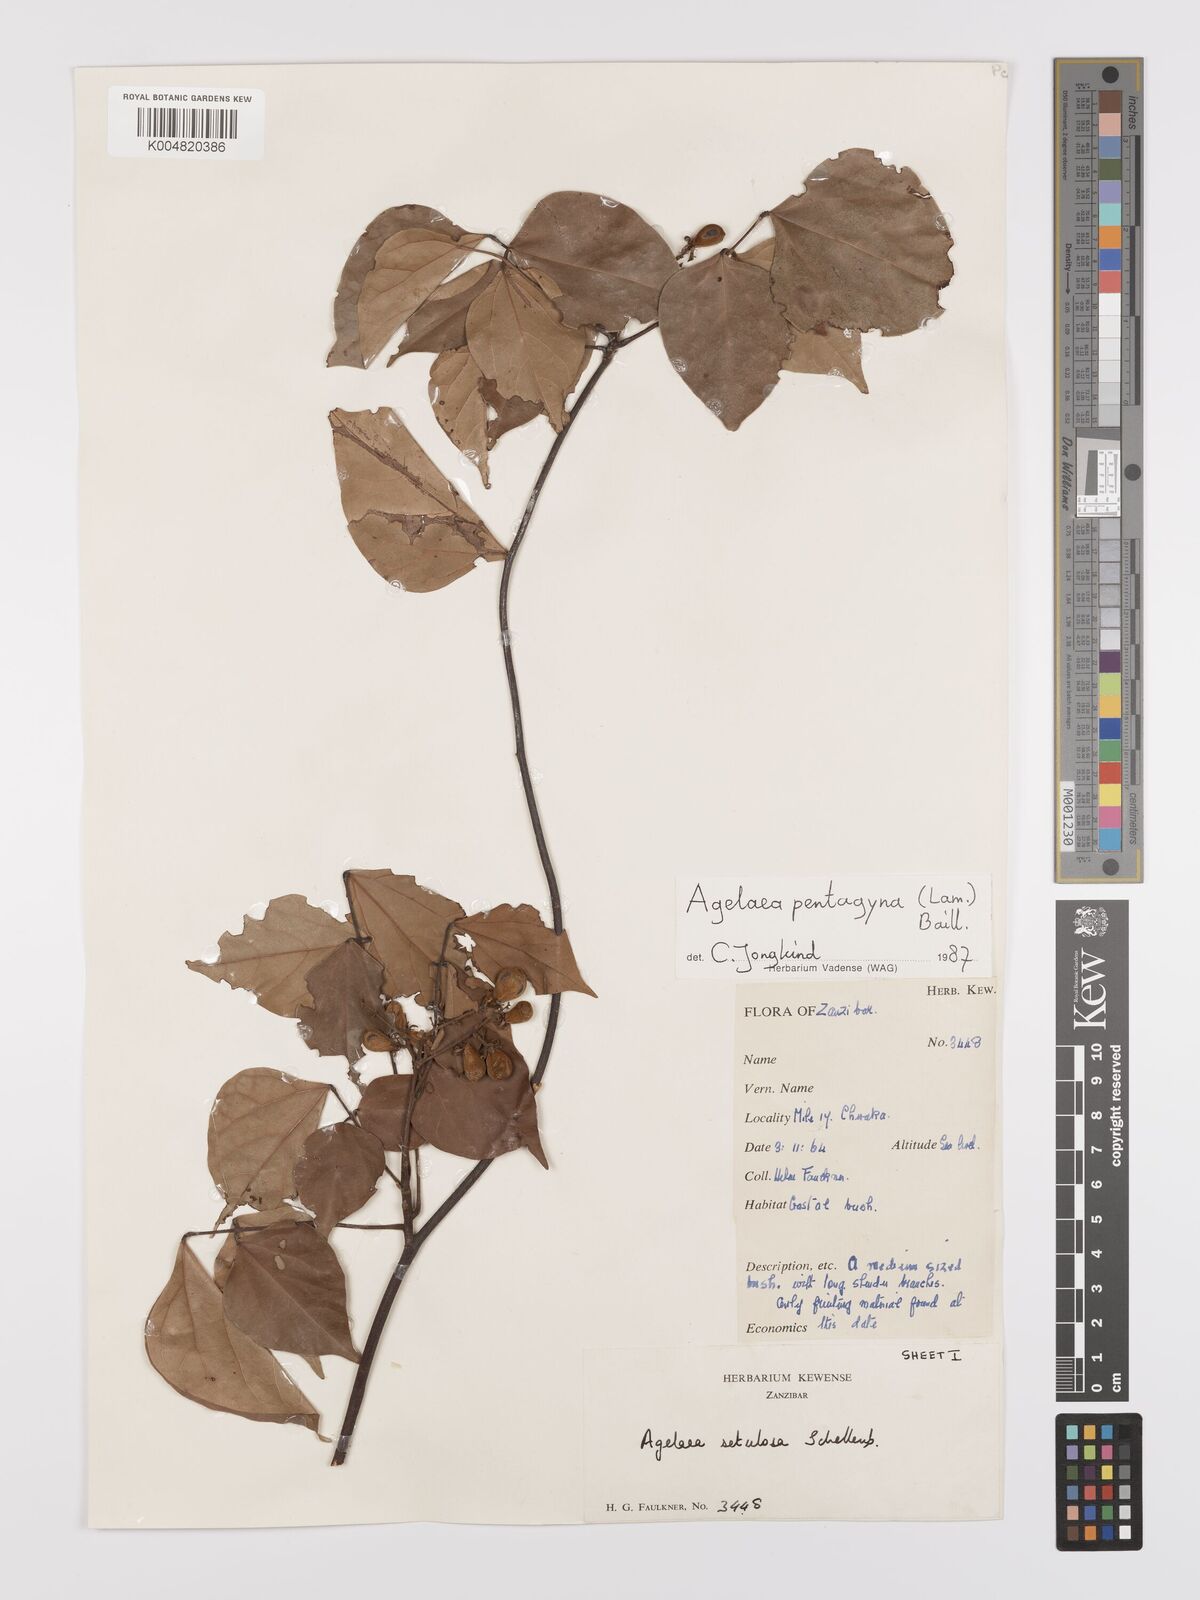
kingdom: Plantae
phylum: Tracheophyta
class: Magnoliopsida
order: Oxalidales
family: Connaraceae
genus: Agelaea
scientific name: Agelaea pentagyna
